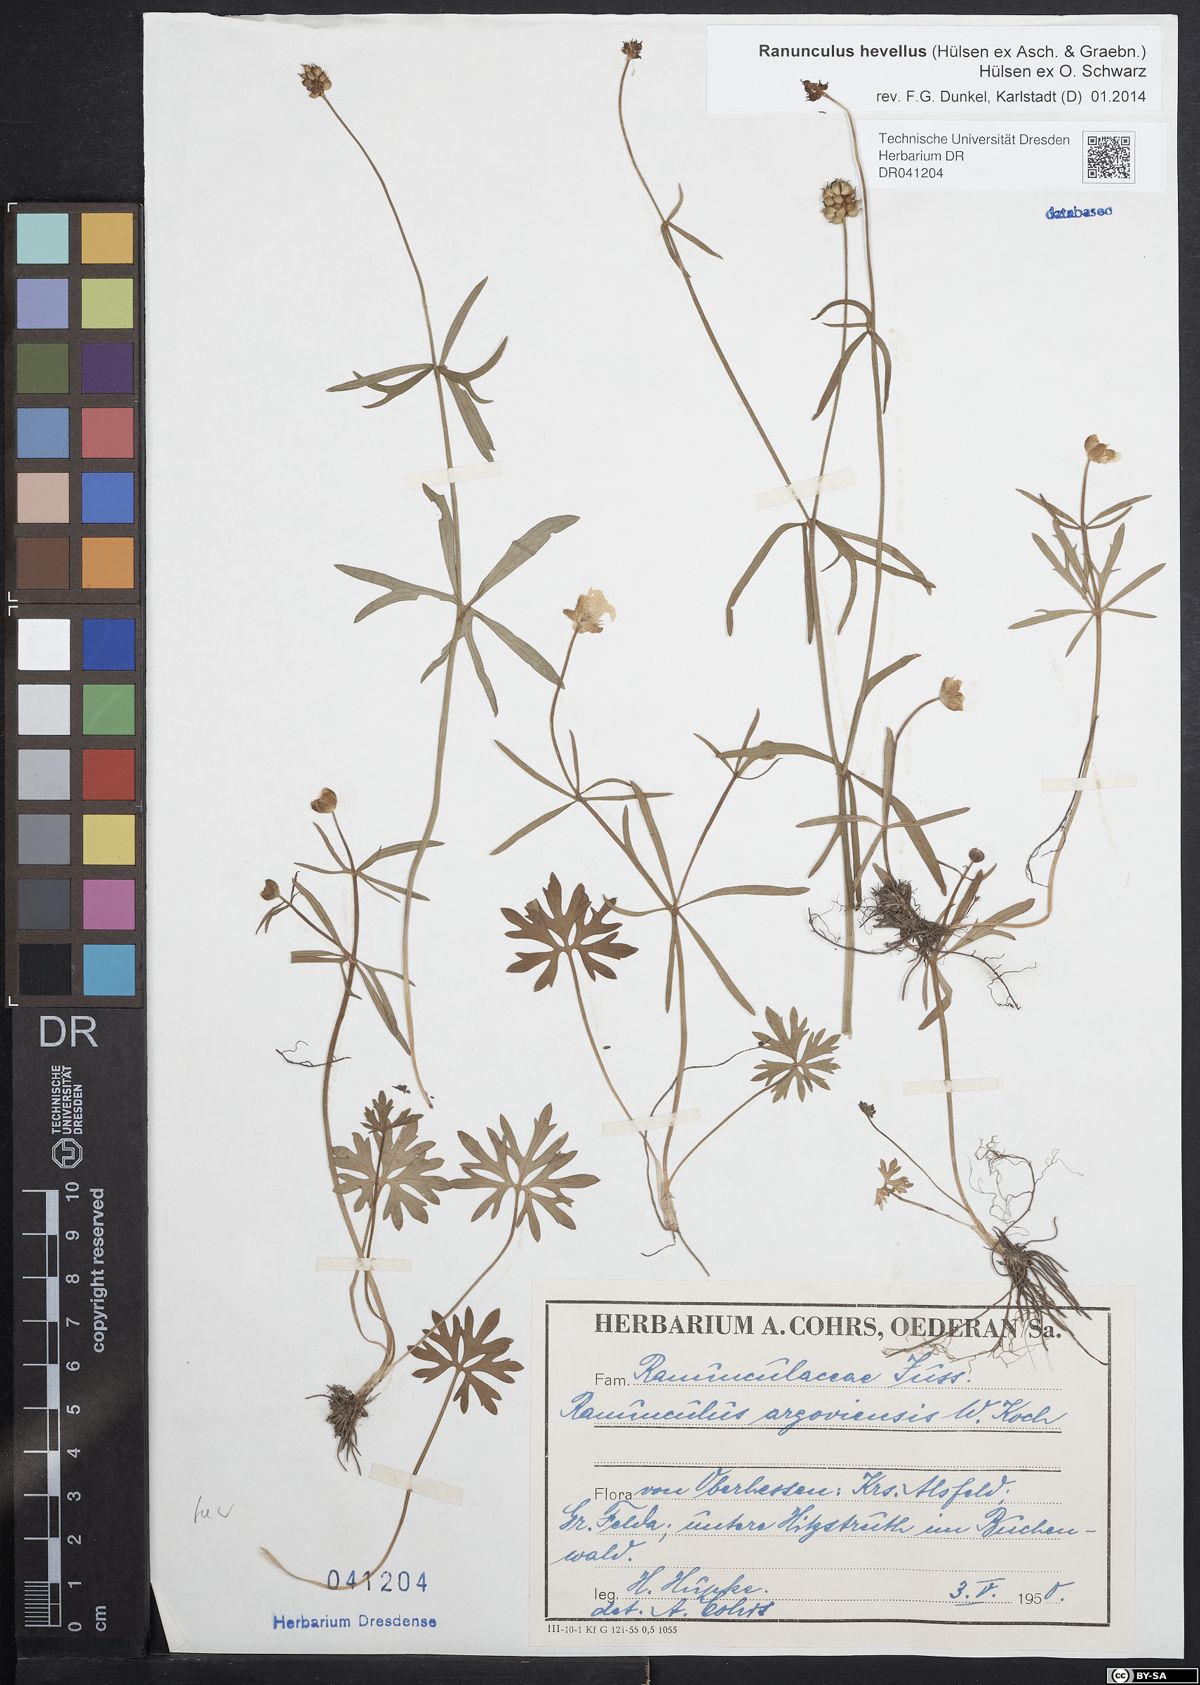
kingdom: Plantae
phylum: Tracheophyta
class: Magnoliopsida
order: Ranunculales
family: Ranunculaceae
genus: Ranunculus
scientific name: Ranunculus hevellus
